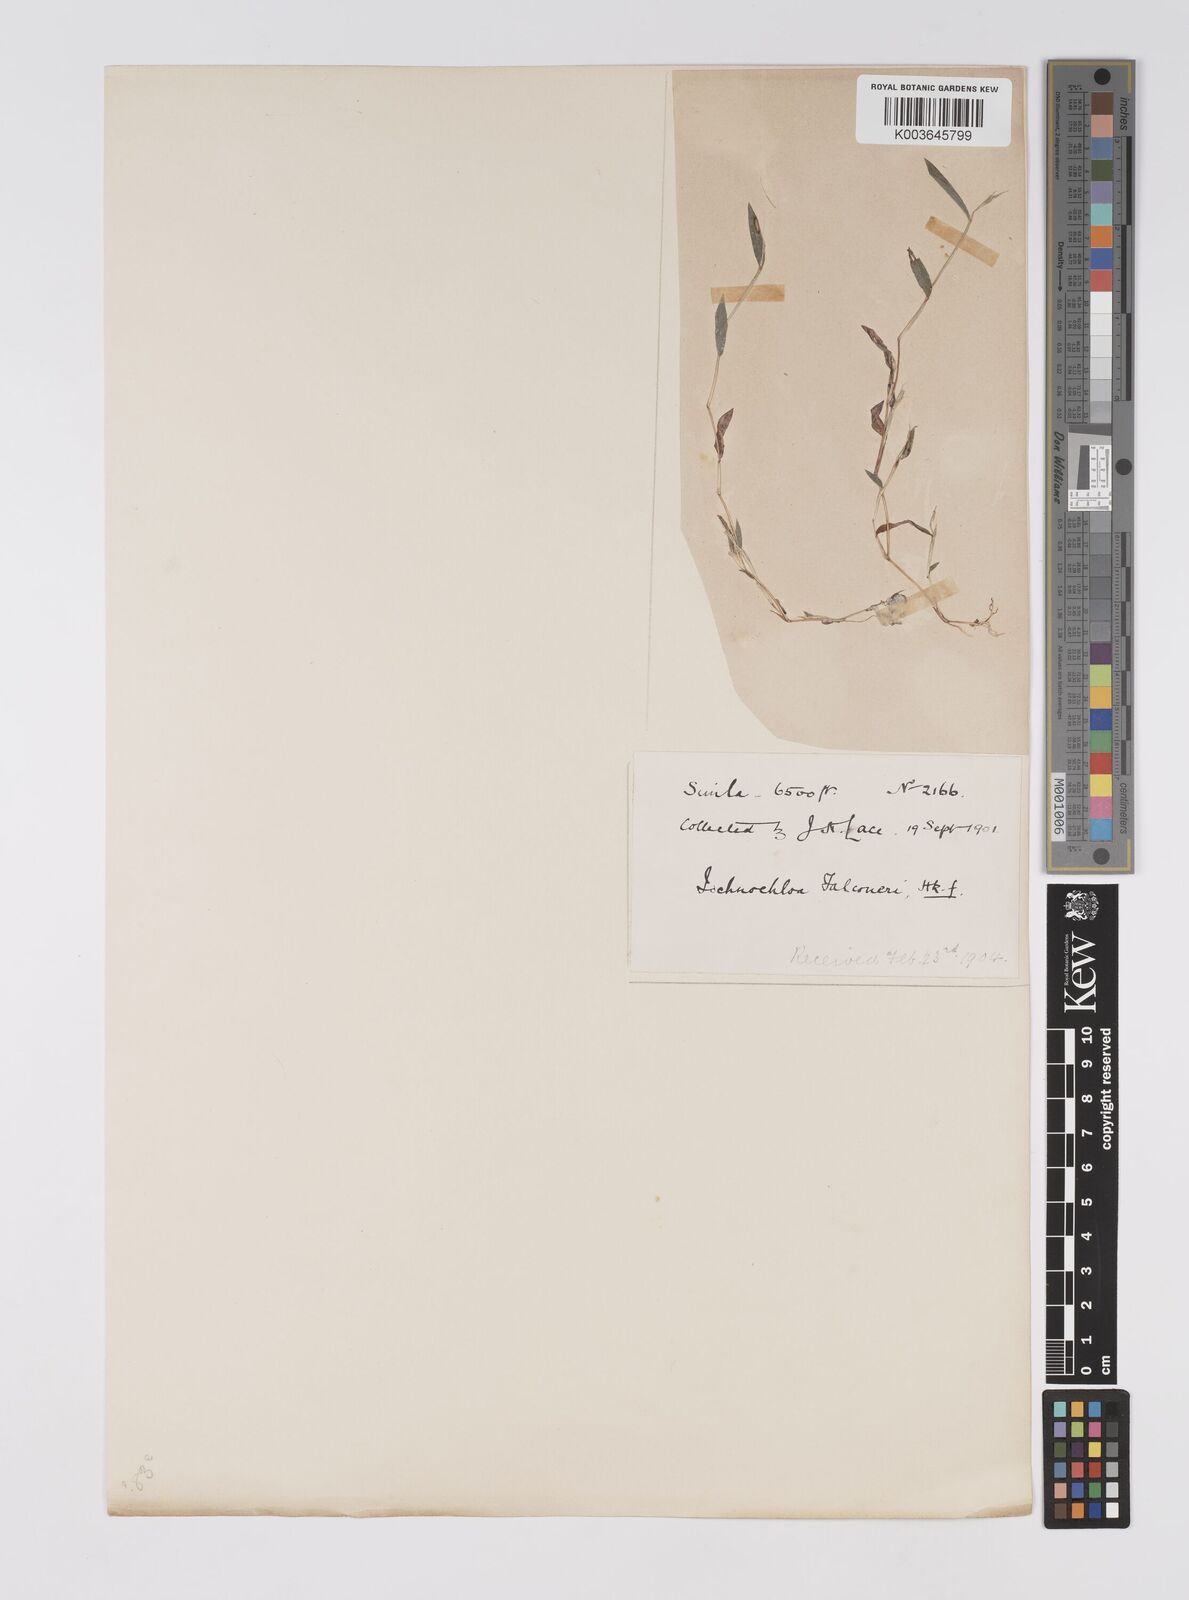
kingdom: Plantae
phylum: Tracheophyta
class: Liliopsida
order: Poales
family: Poaceae
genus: Microstegium
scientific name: Microstegium falconeri
